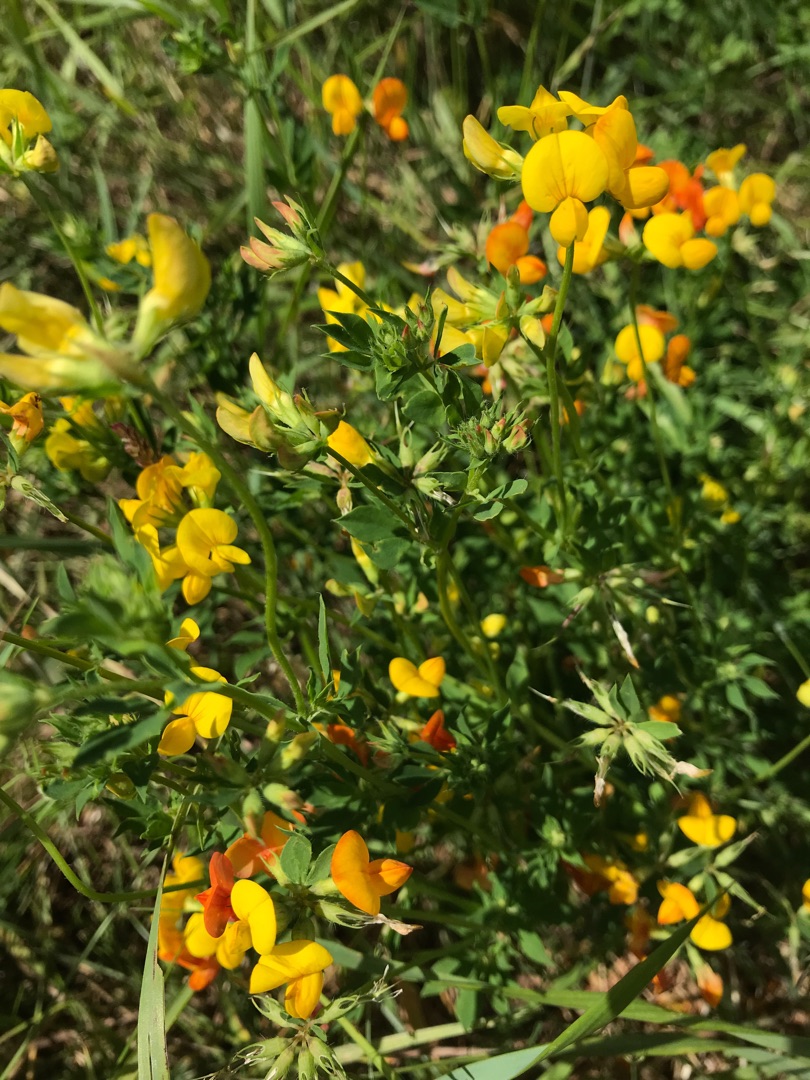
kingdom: Plantae
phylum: Tracheophyta
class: Magnoliopsida
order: Fabales
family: Fabaceae
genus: Lotus
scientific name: Lotus corniculatus
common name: Almindelig kællingetand
